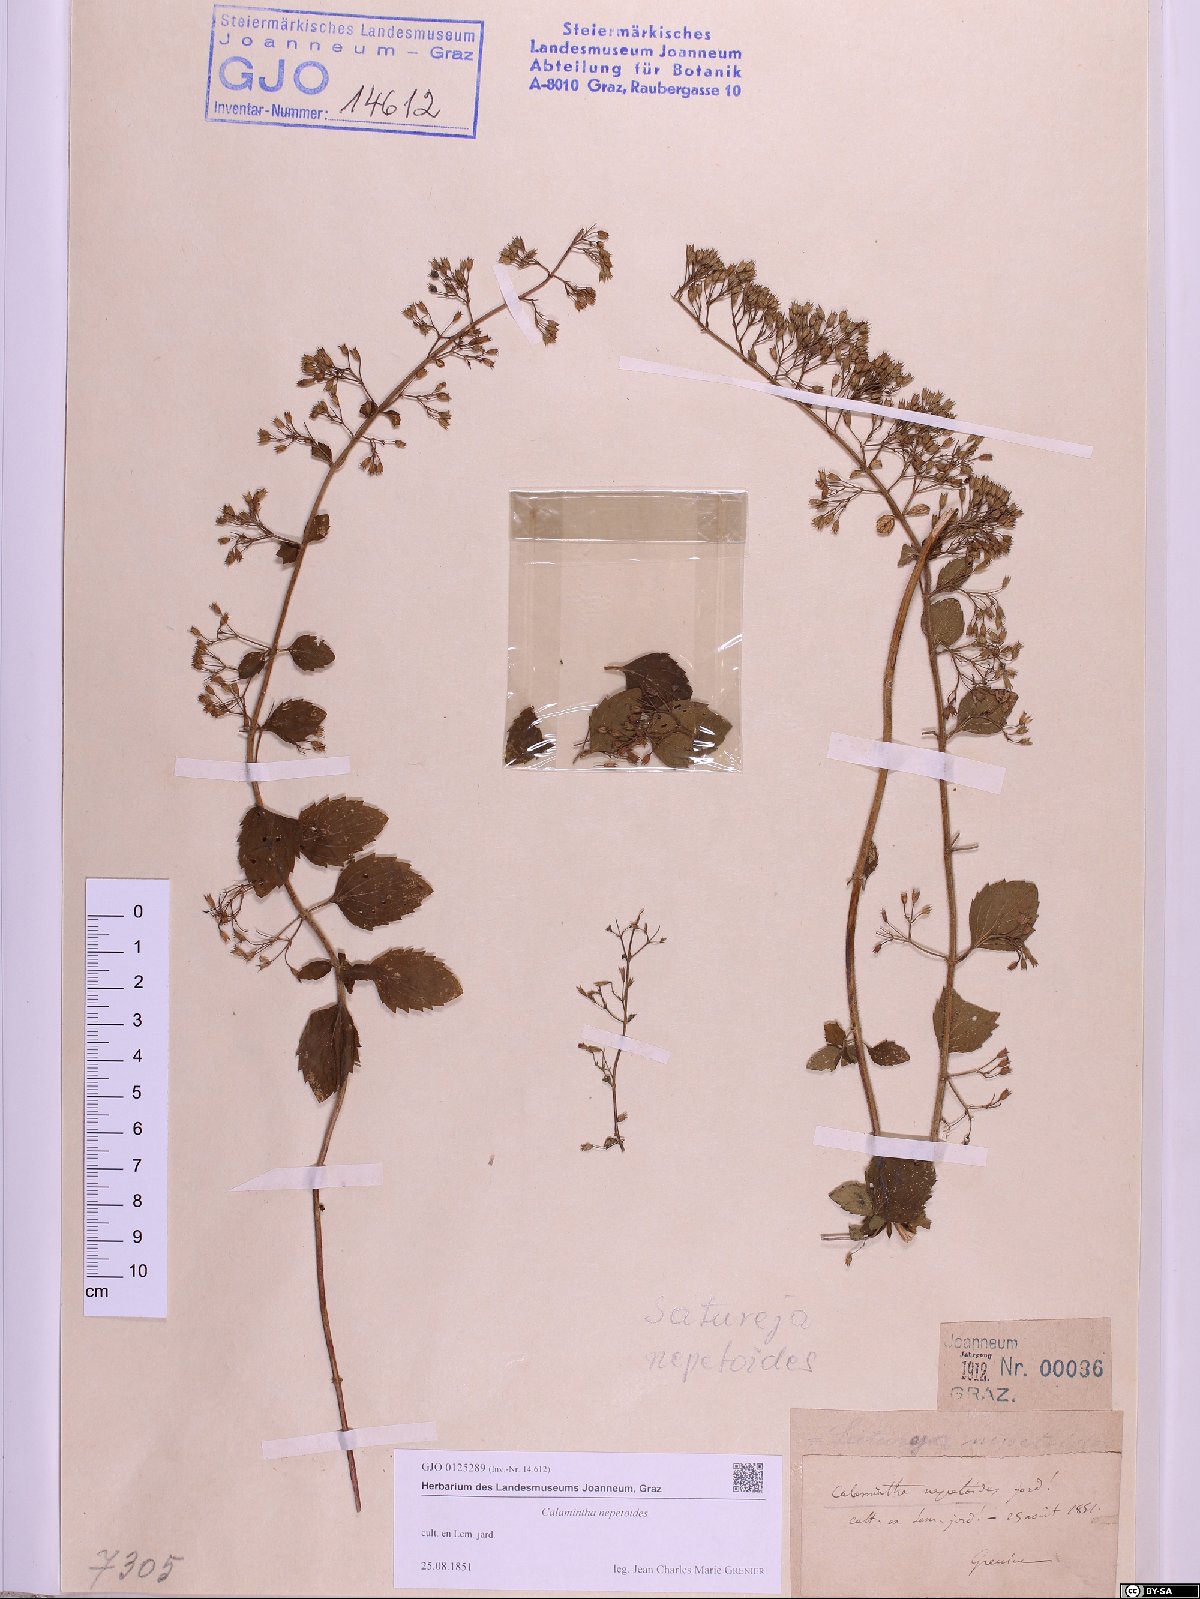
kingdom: Plantae
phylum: Tracheophyta
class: Magnoliopsida
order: Lamiales
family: Lamiaceae
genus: Clinopodium
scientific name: Clinopodium nepeta
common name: Lesser calamint
